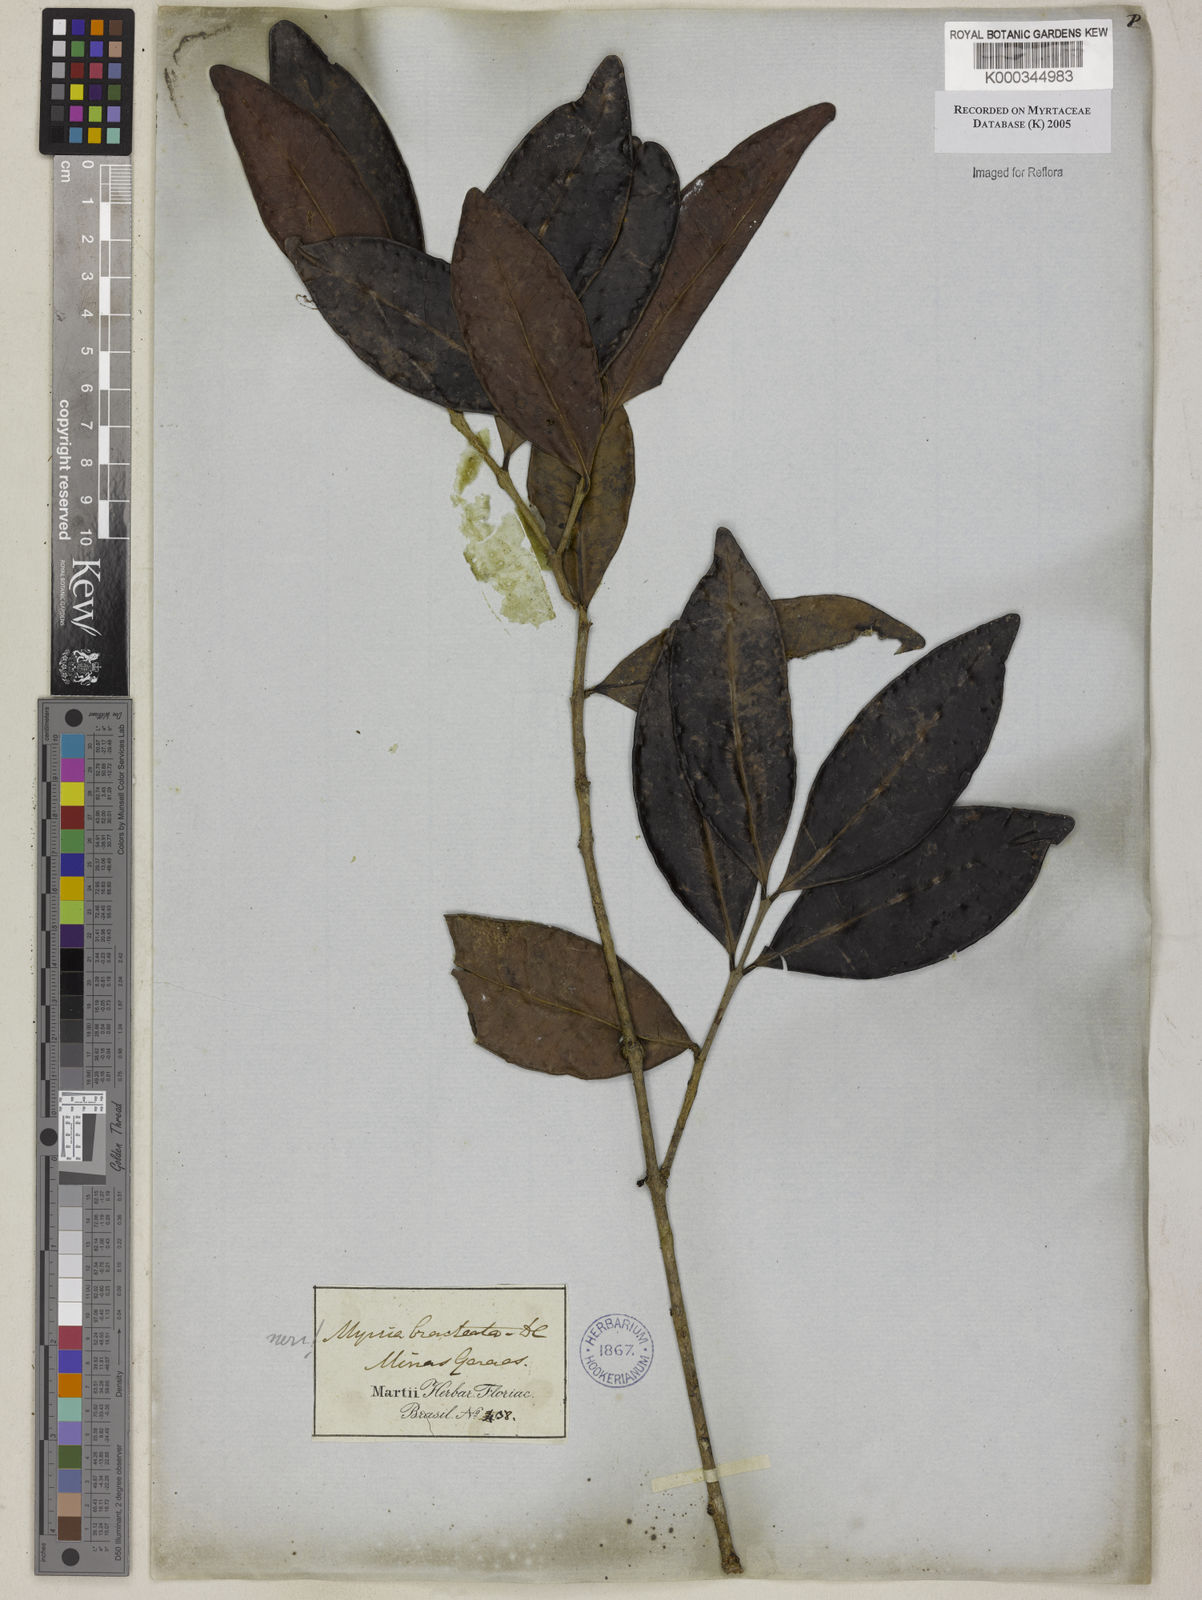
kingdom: Plantae
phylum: Tracheophyta
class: Magnoliopsida
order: Myrtales
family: Myrtaceae
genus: Myrcia
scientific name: Myrcia
